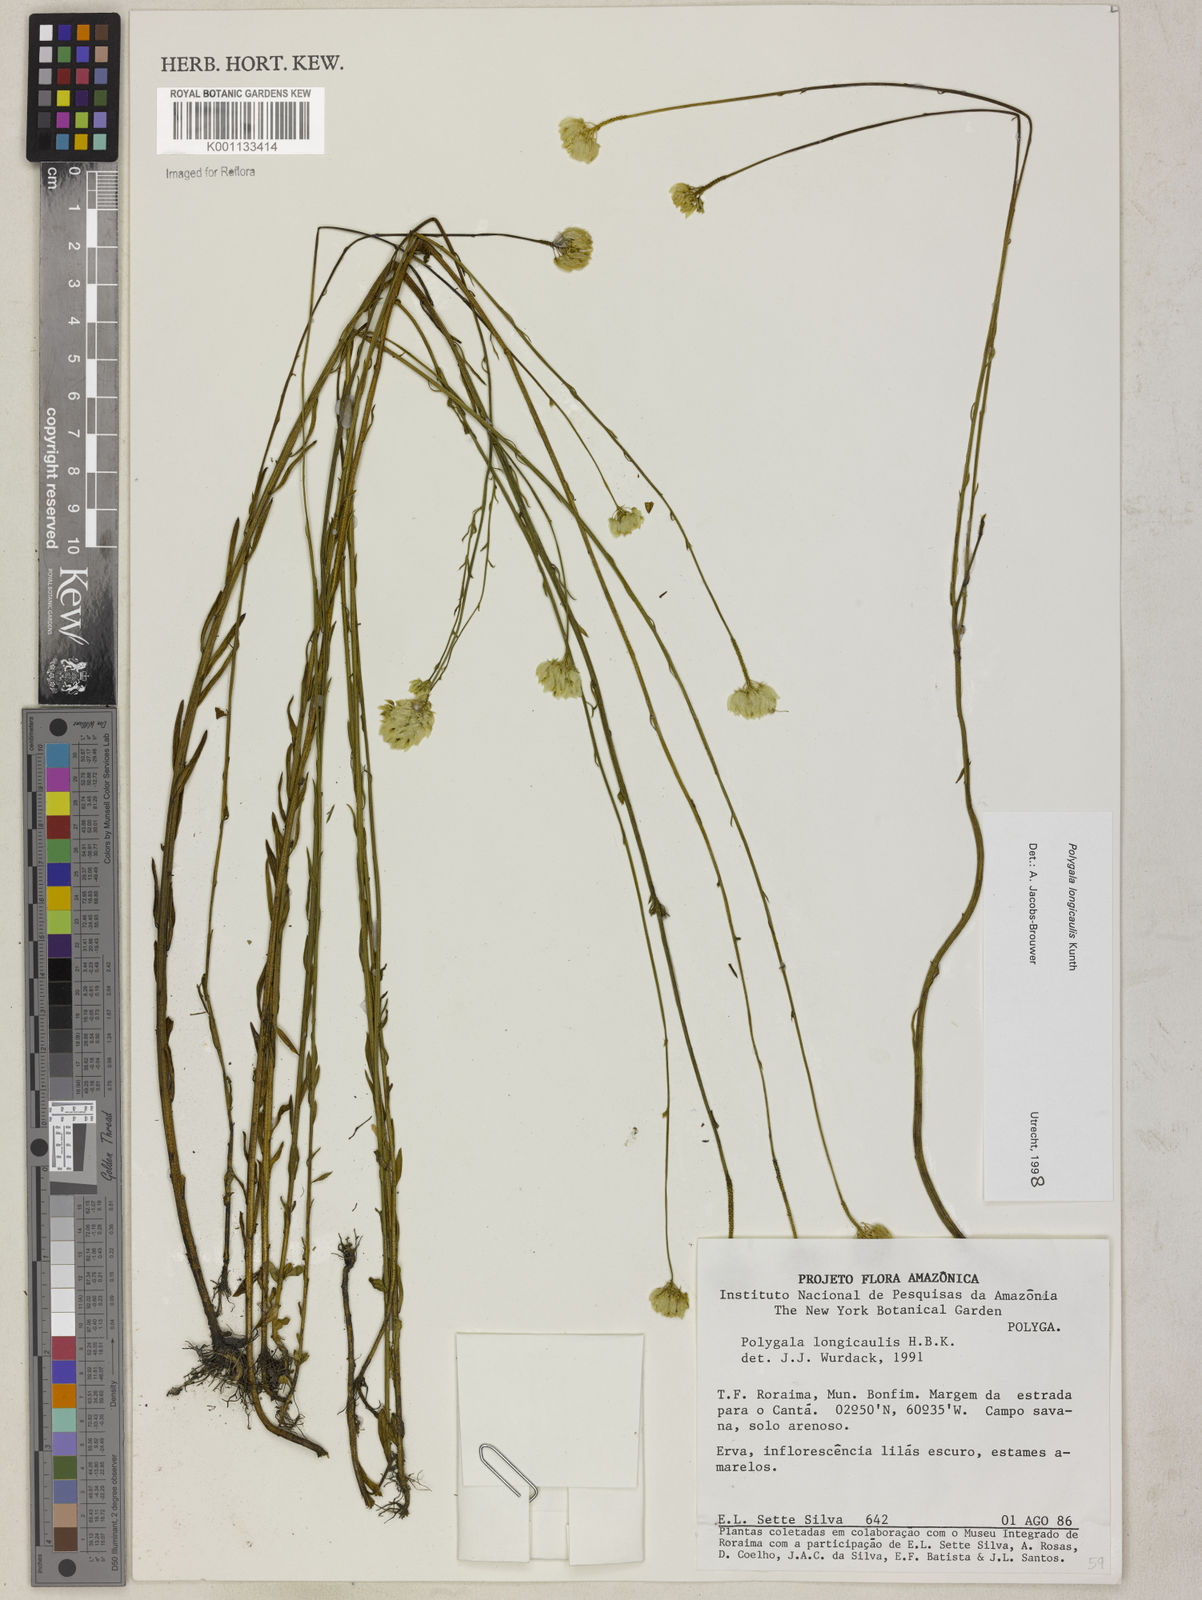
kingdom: Plantae
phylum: Tracheophyta
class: Magnoliopsida
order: Fabales
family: Polygalaceae
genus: Polygala
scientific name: Polygala longicaulis
